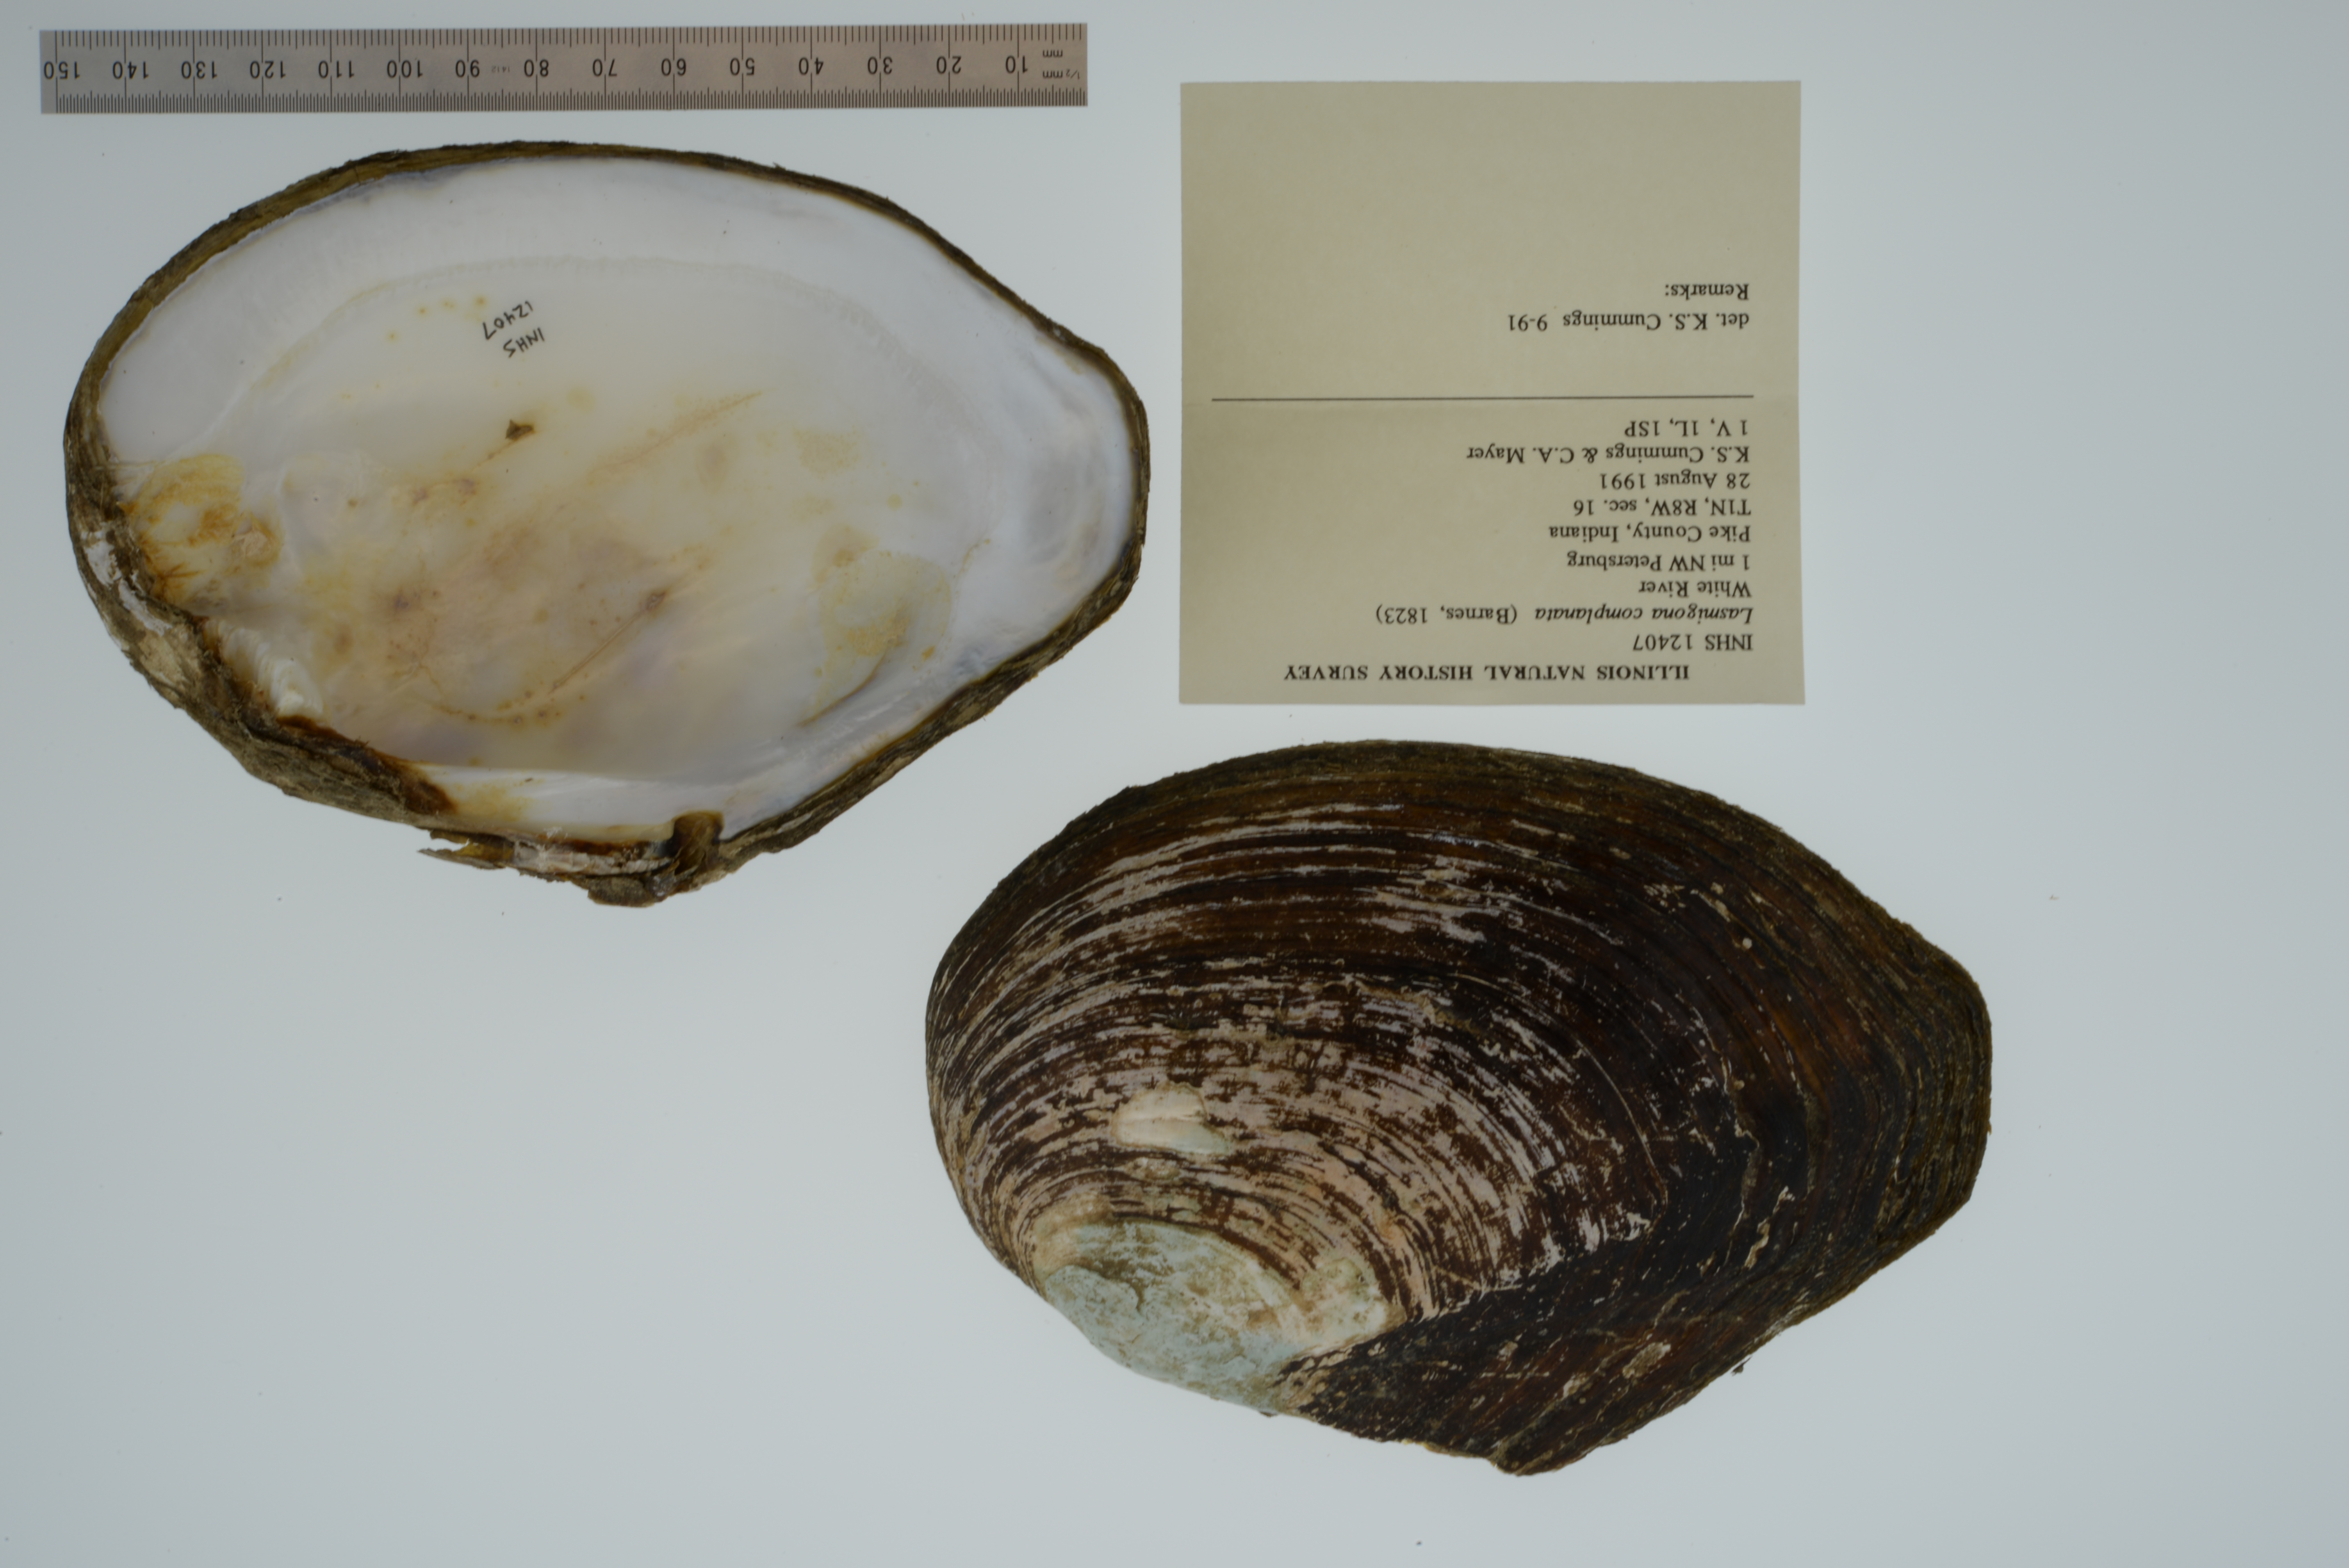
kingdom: Animalia
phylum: Mollusca
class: Bivalvia
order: Unionida
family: Unionidae
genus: Lasmigona
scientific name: Lasmigona complanata
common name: White heelsplitter
